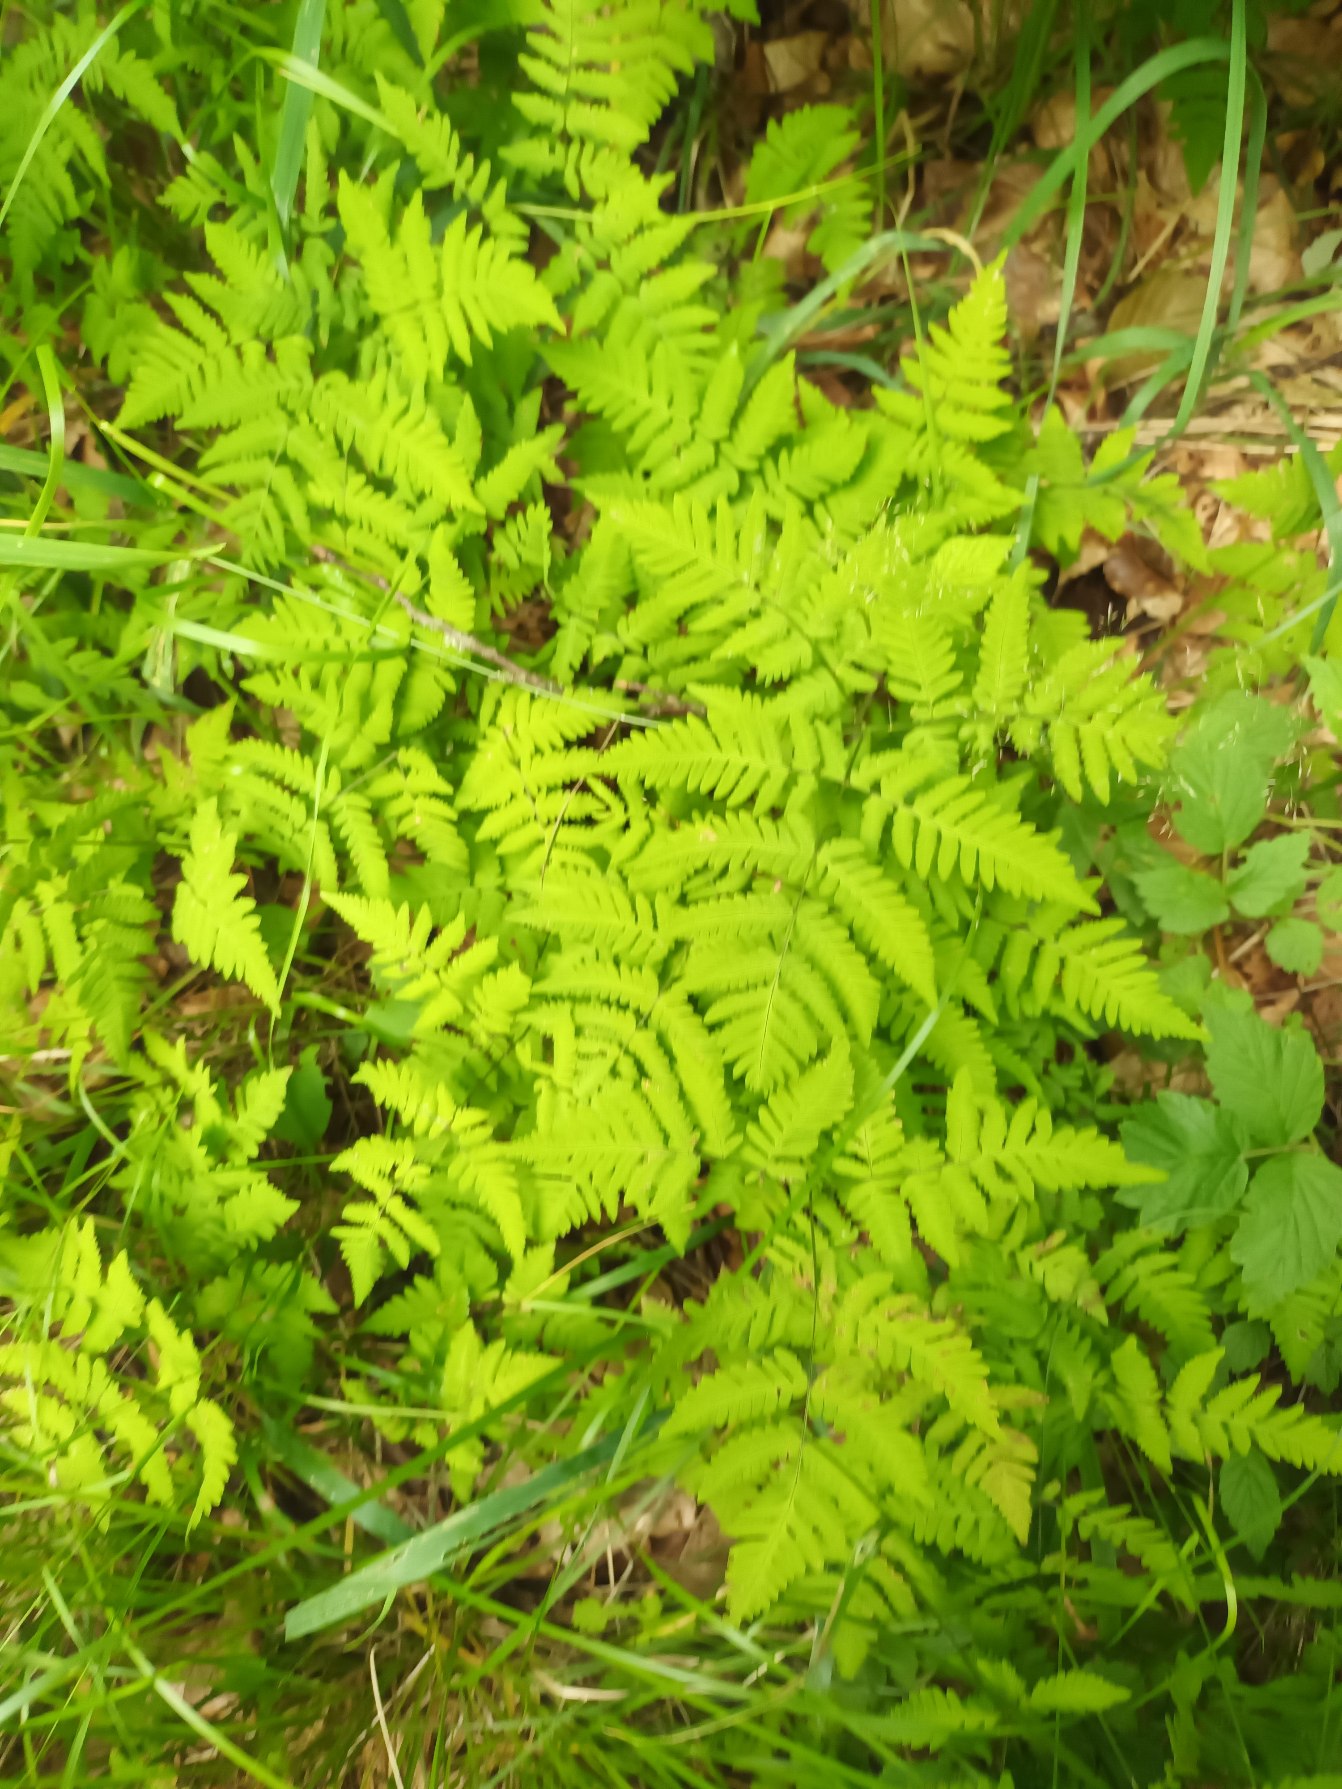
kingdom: Plantae
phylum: Tracheophyta
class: Polypodiopsida
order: Polypodiales
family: Cystopteridaceae
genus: Gymnocarpium
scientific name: Gymnocarpium dryopteris
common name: Tredelt egebregne
